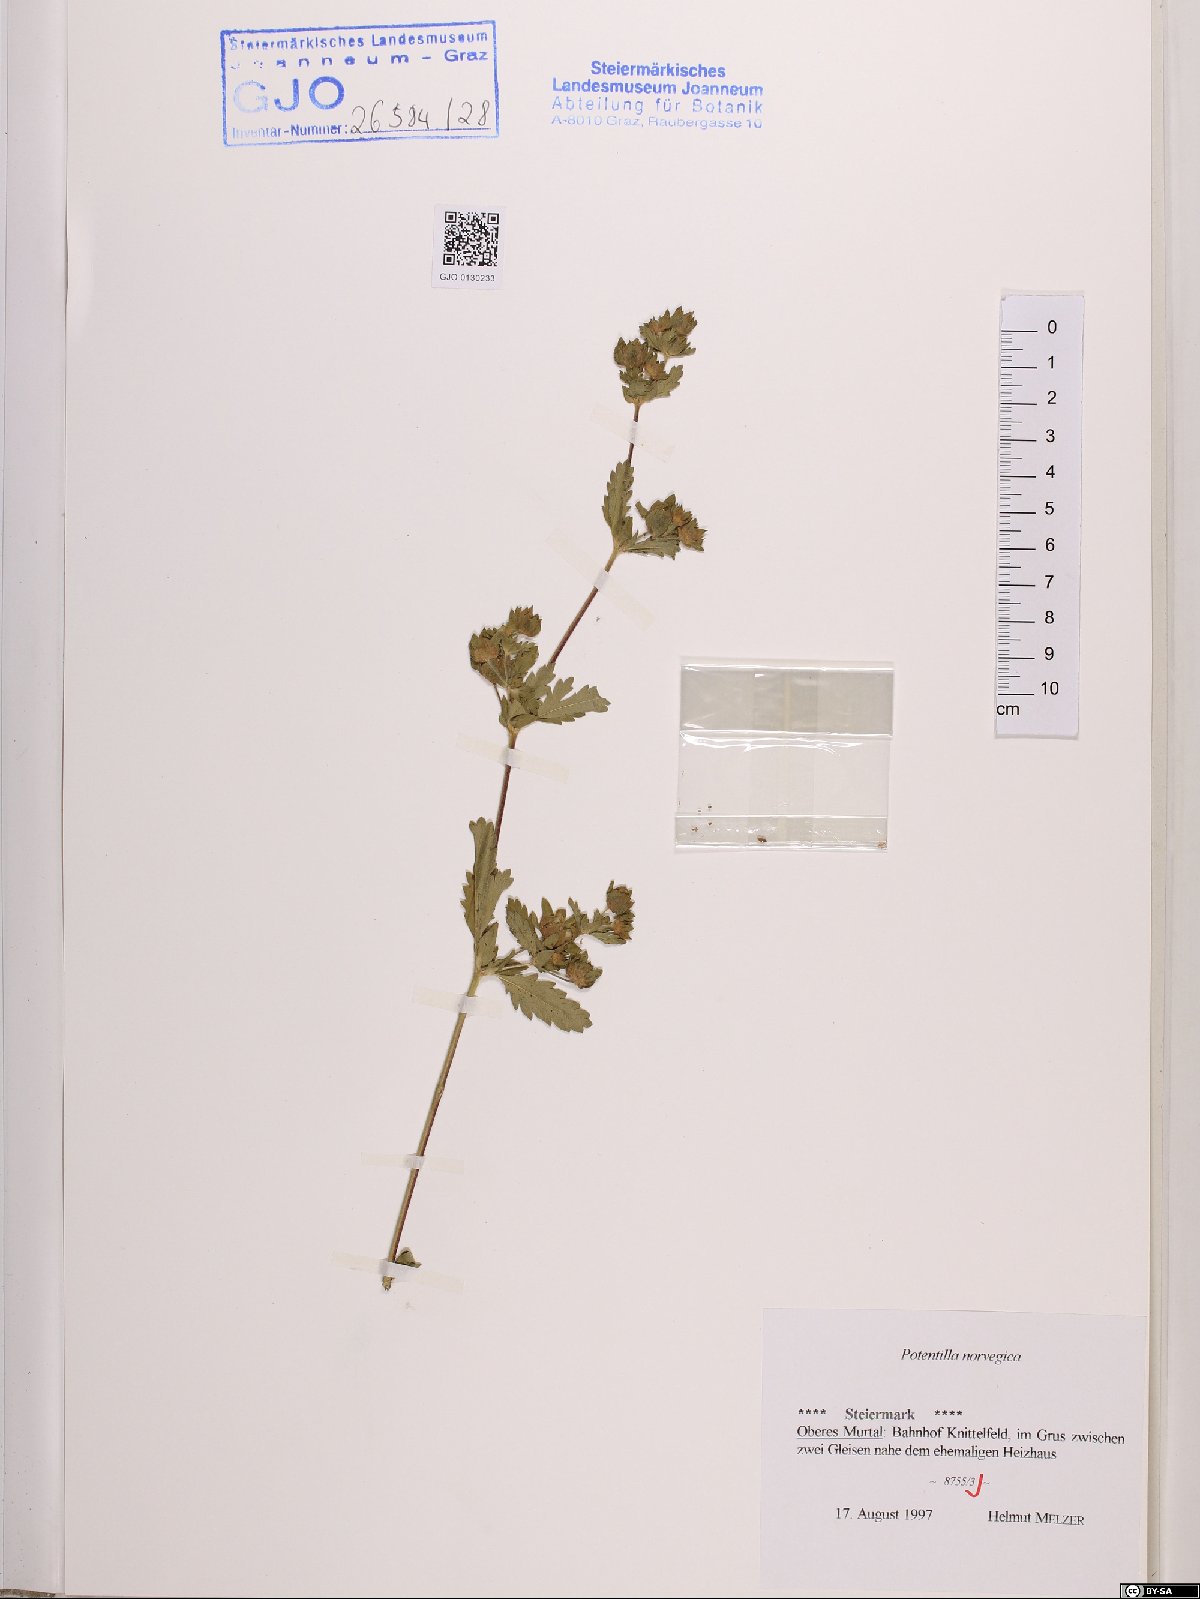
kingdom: Plantae
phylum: Tracheophyta
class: Magnoliopsida
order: Rosales
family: Rosaceae
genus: Potentilla
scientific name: Potentilla norvegica
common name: Ternate-leaved cinquefoil
